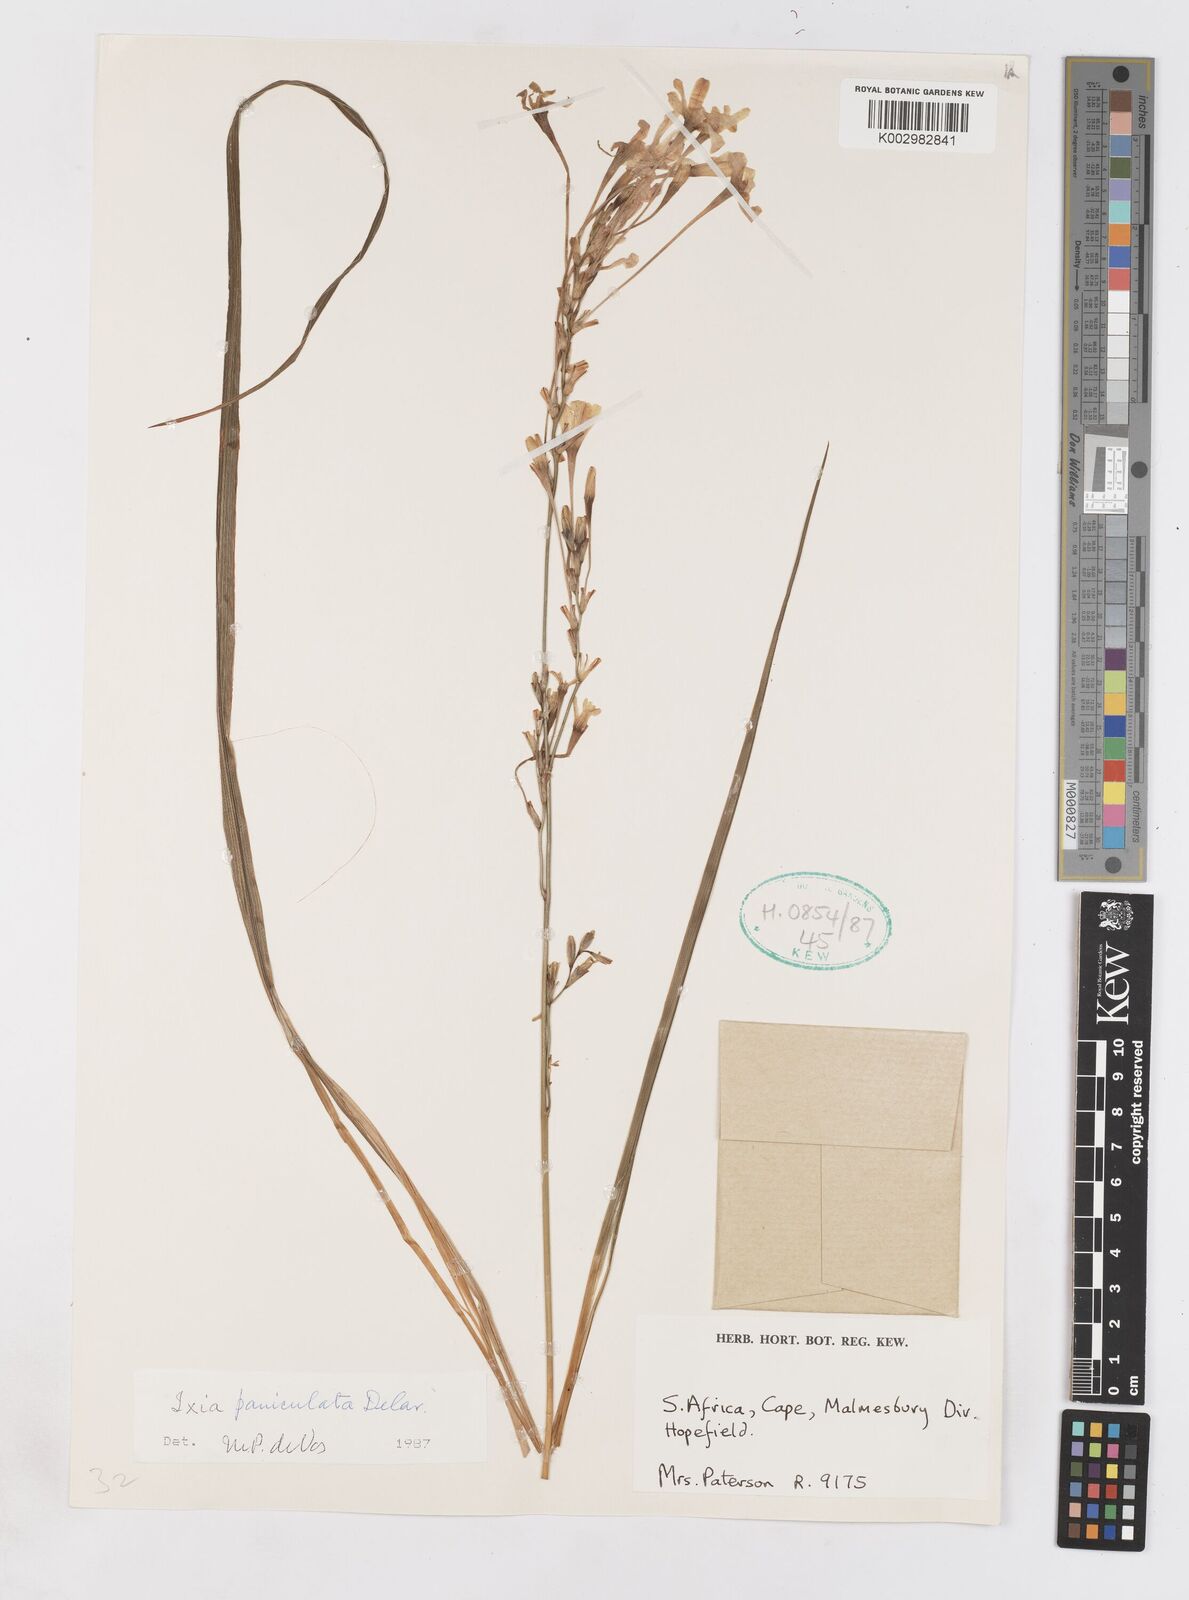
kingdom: Plantae
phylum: Tracheophyta
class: Liliopsida
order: Asparagales
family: Iridaceae
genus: Ixia
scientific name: Ixia paniculata
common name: Tubular corn-lily
